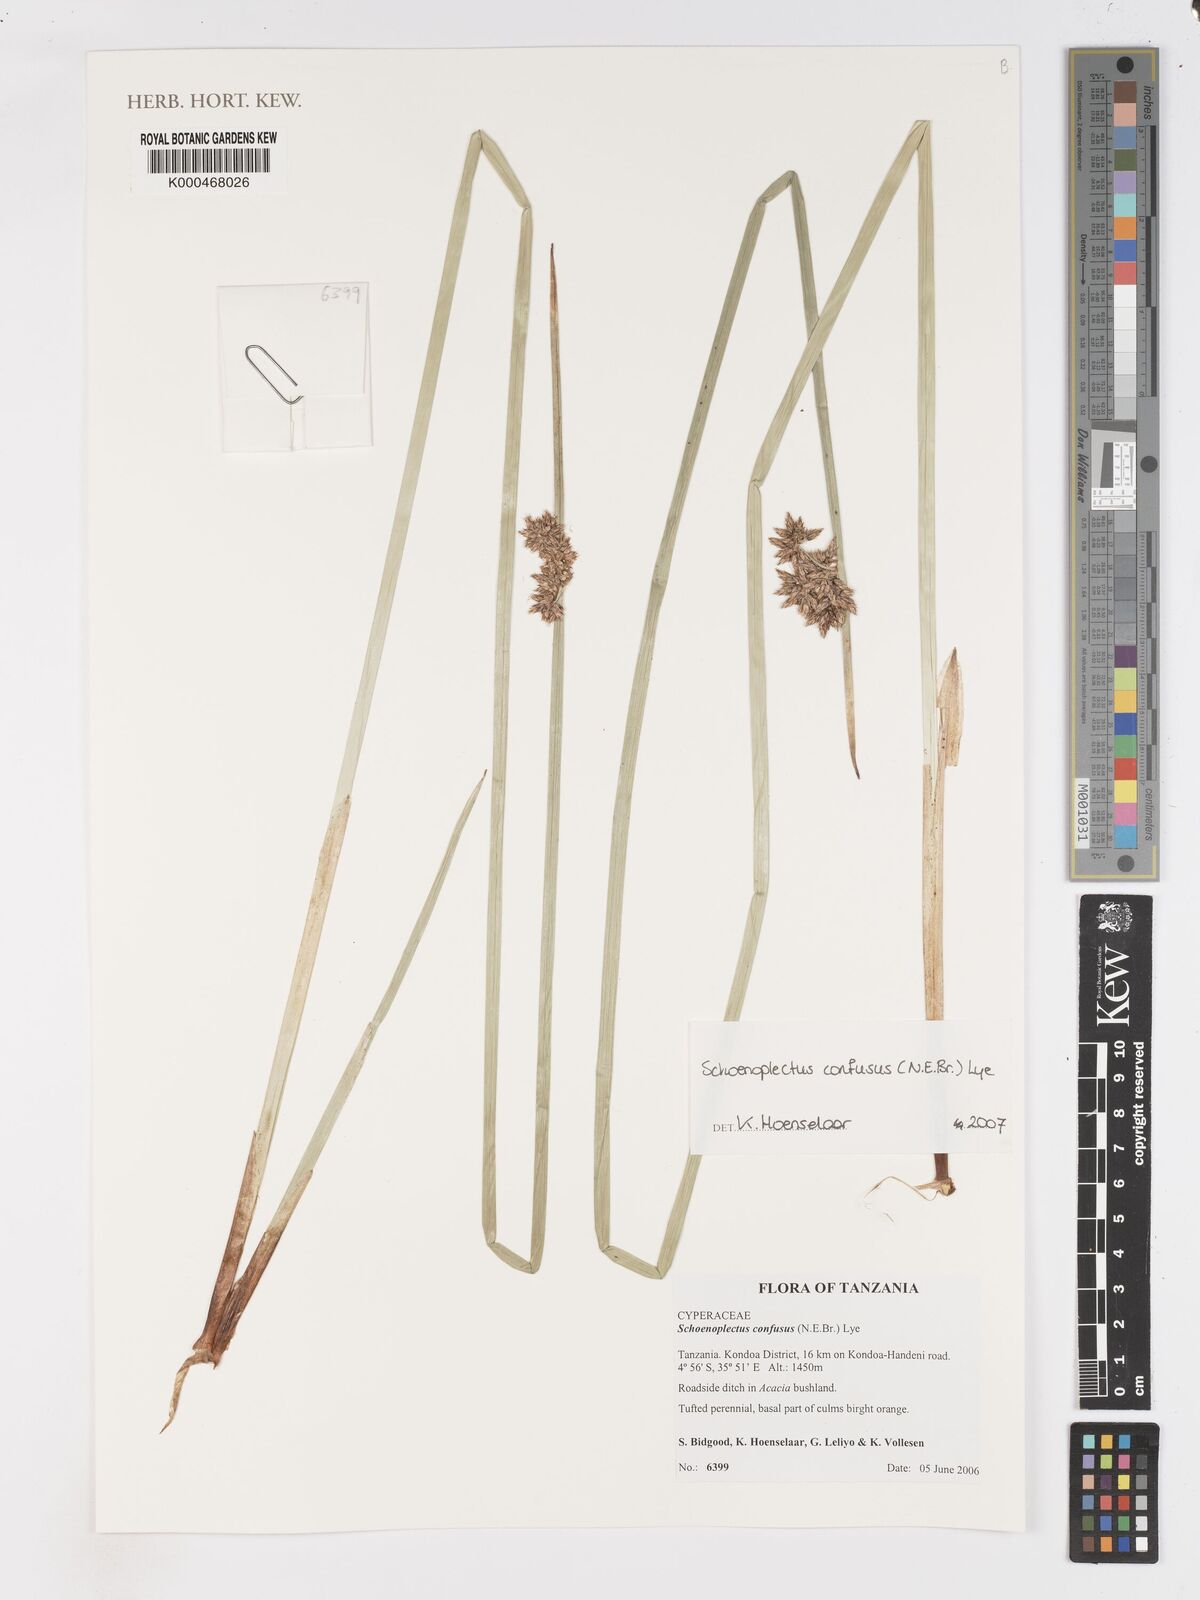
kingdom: Plantae
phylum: Tracheophyta
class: Liliopsida
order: Poales
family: Cyperaceae
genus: Schoenoplectiella
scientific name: Schoenoplectiella confusa
